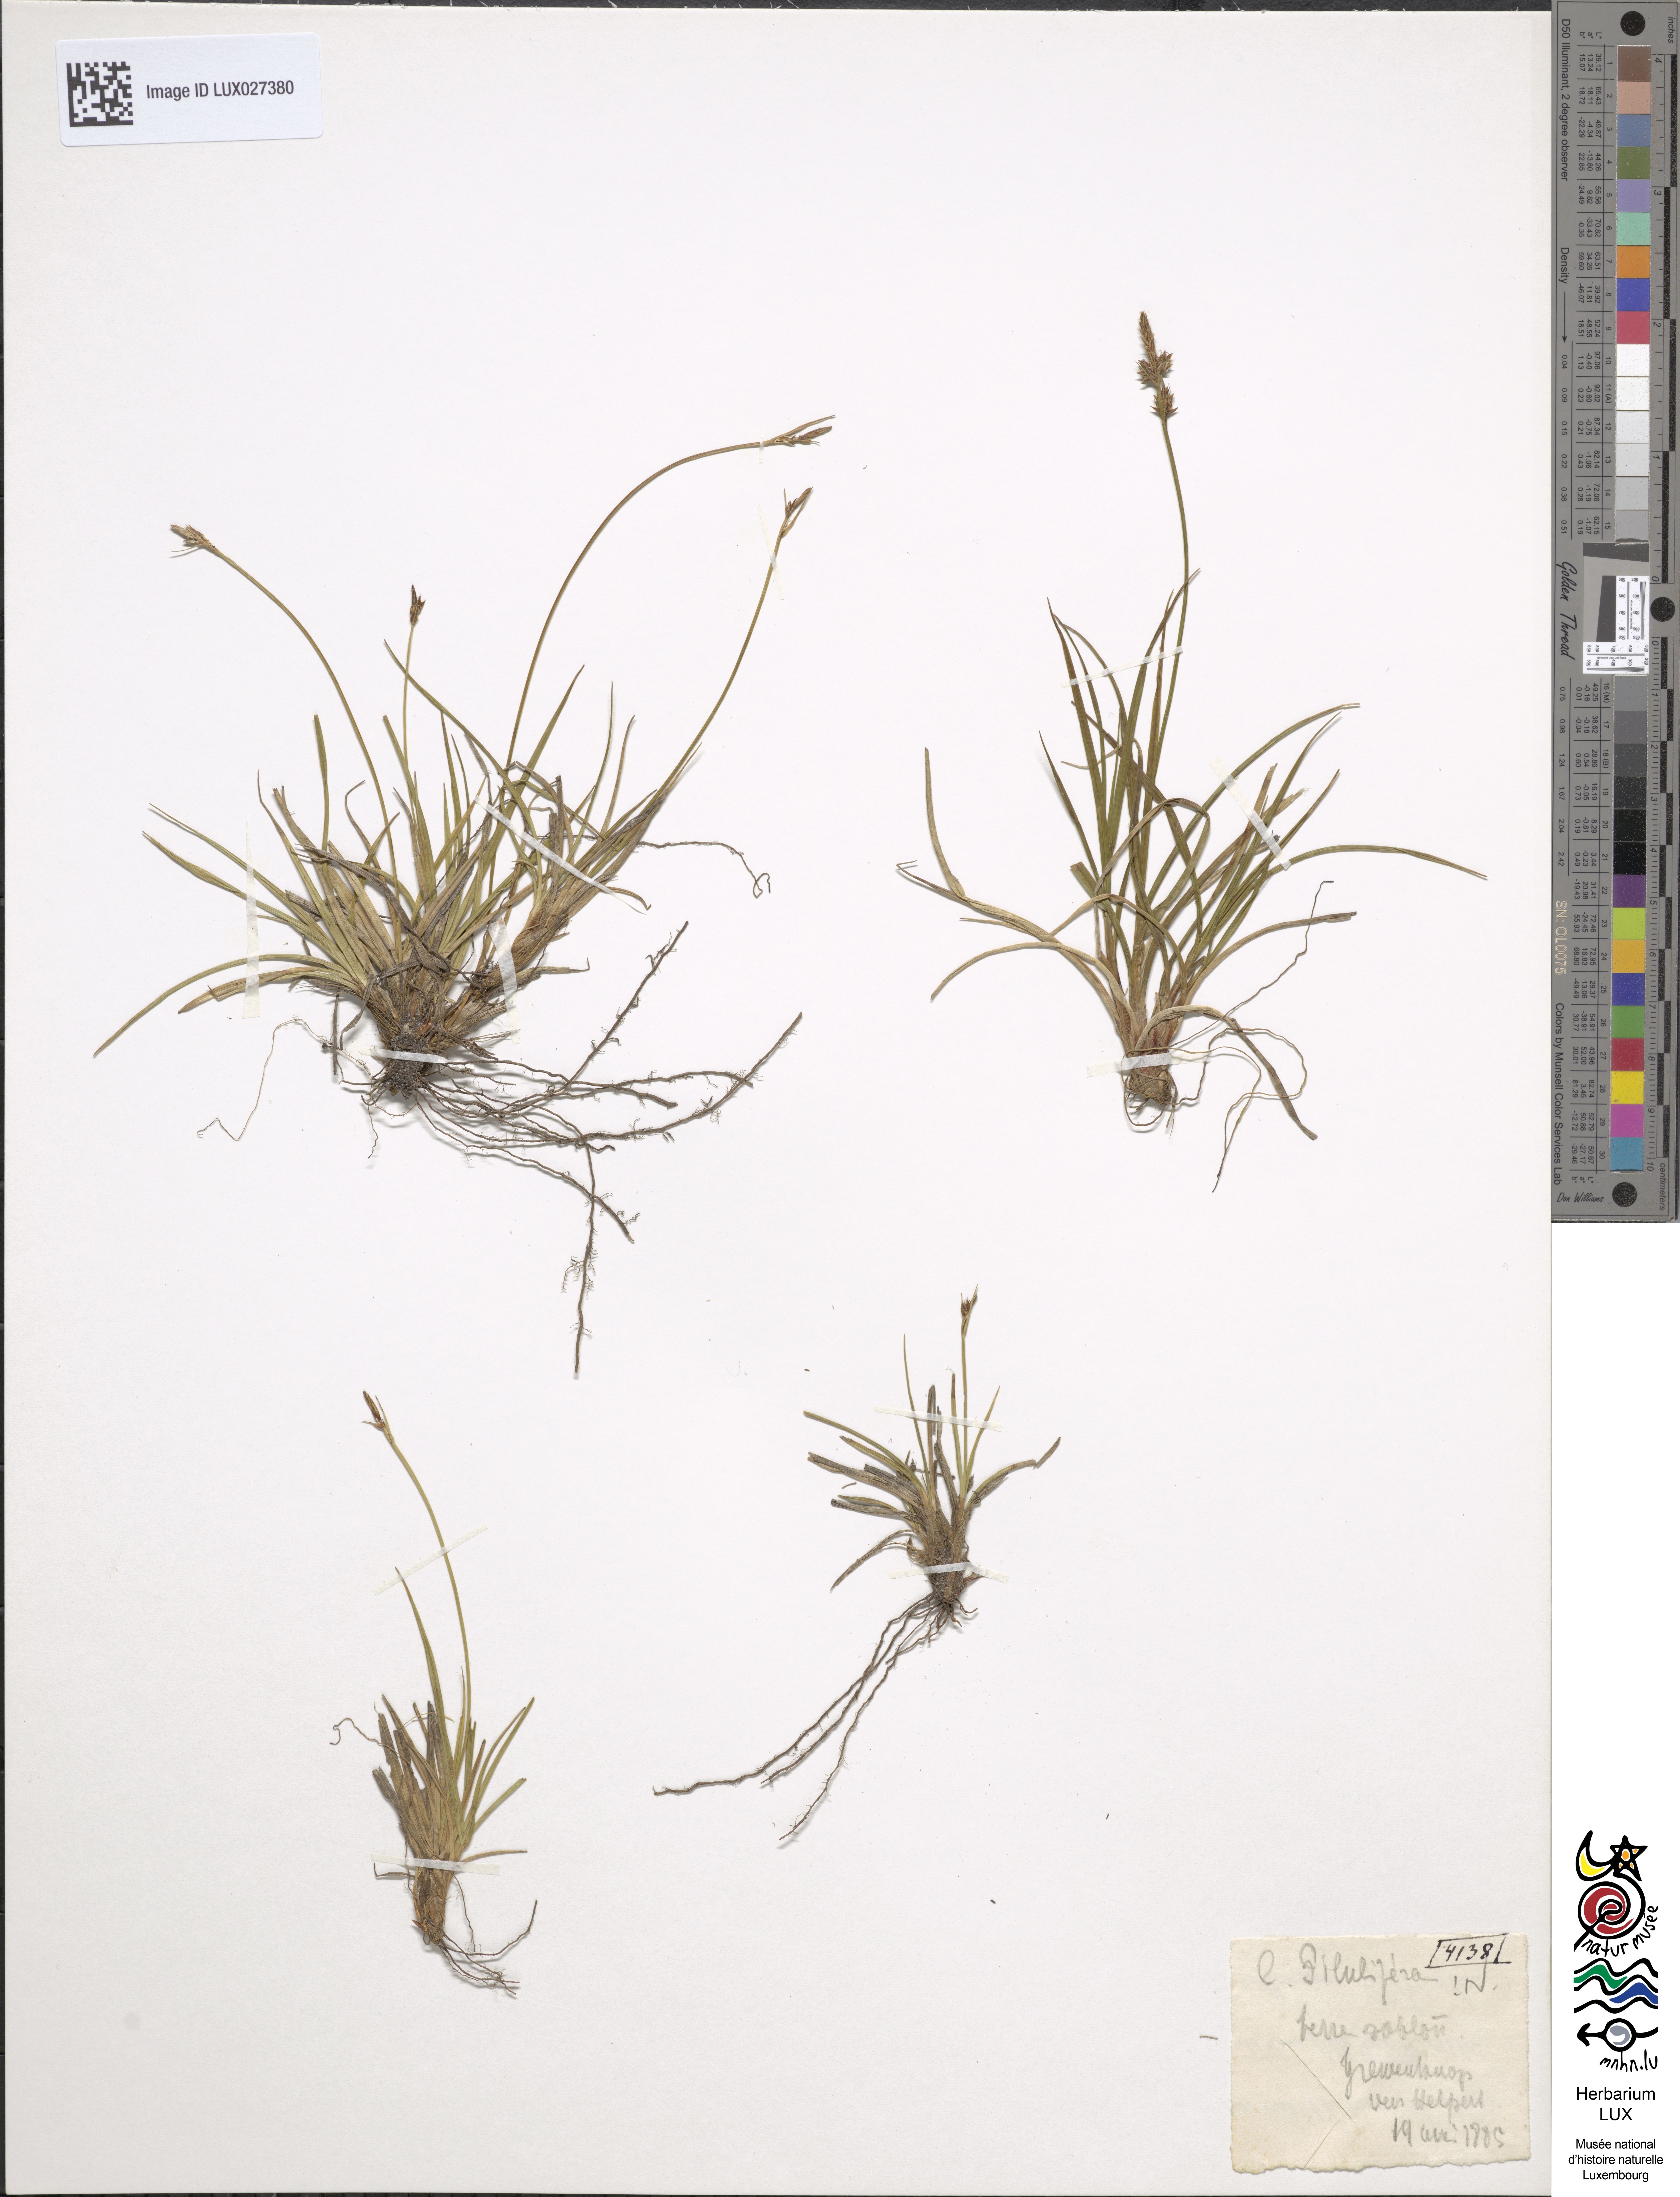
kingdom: Plantae
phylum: Tracheophyta
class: Liliopsida
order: Poales
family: Cyperaceae
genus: Carex
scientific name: Carex pilulifera
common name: Pill sedge
